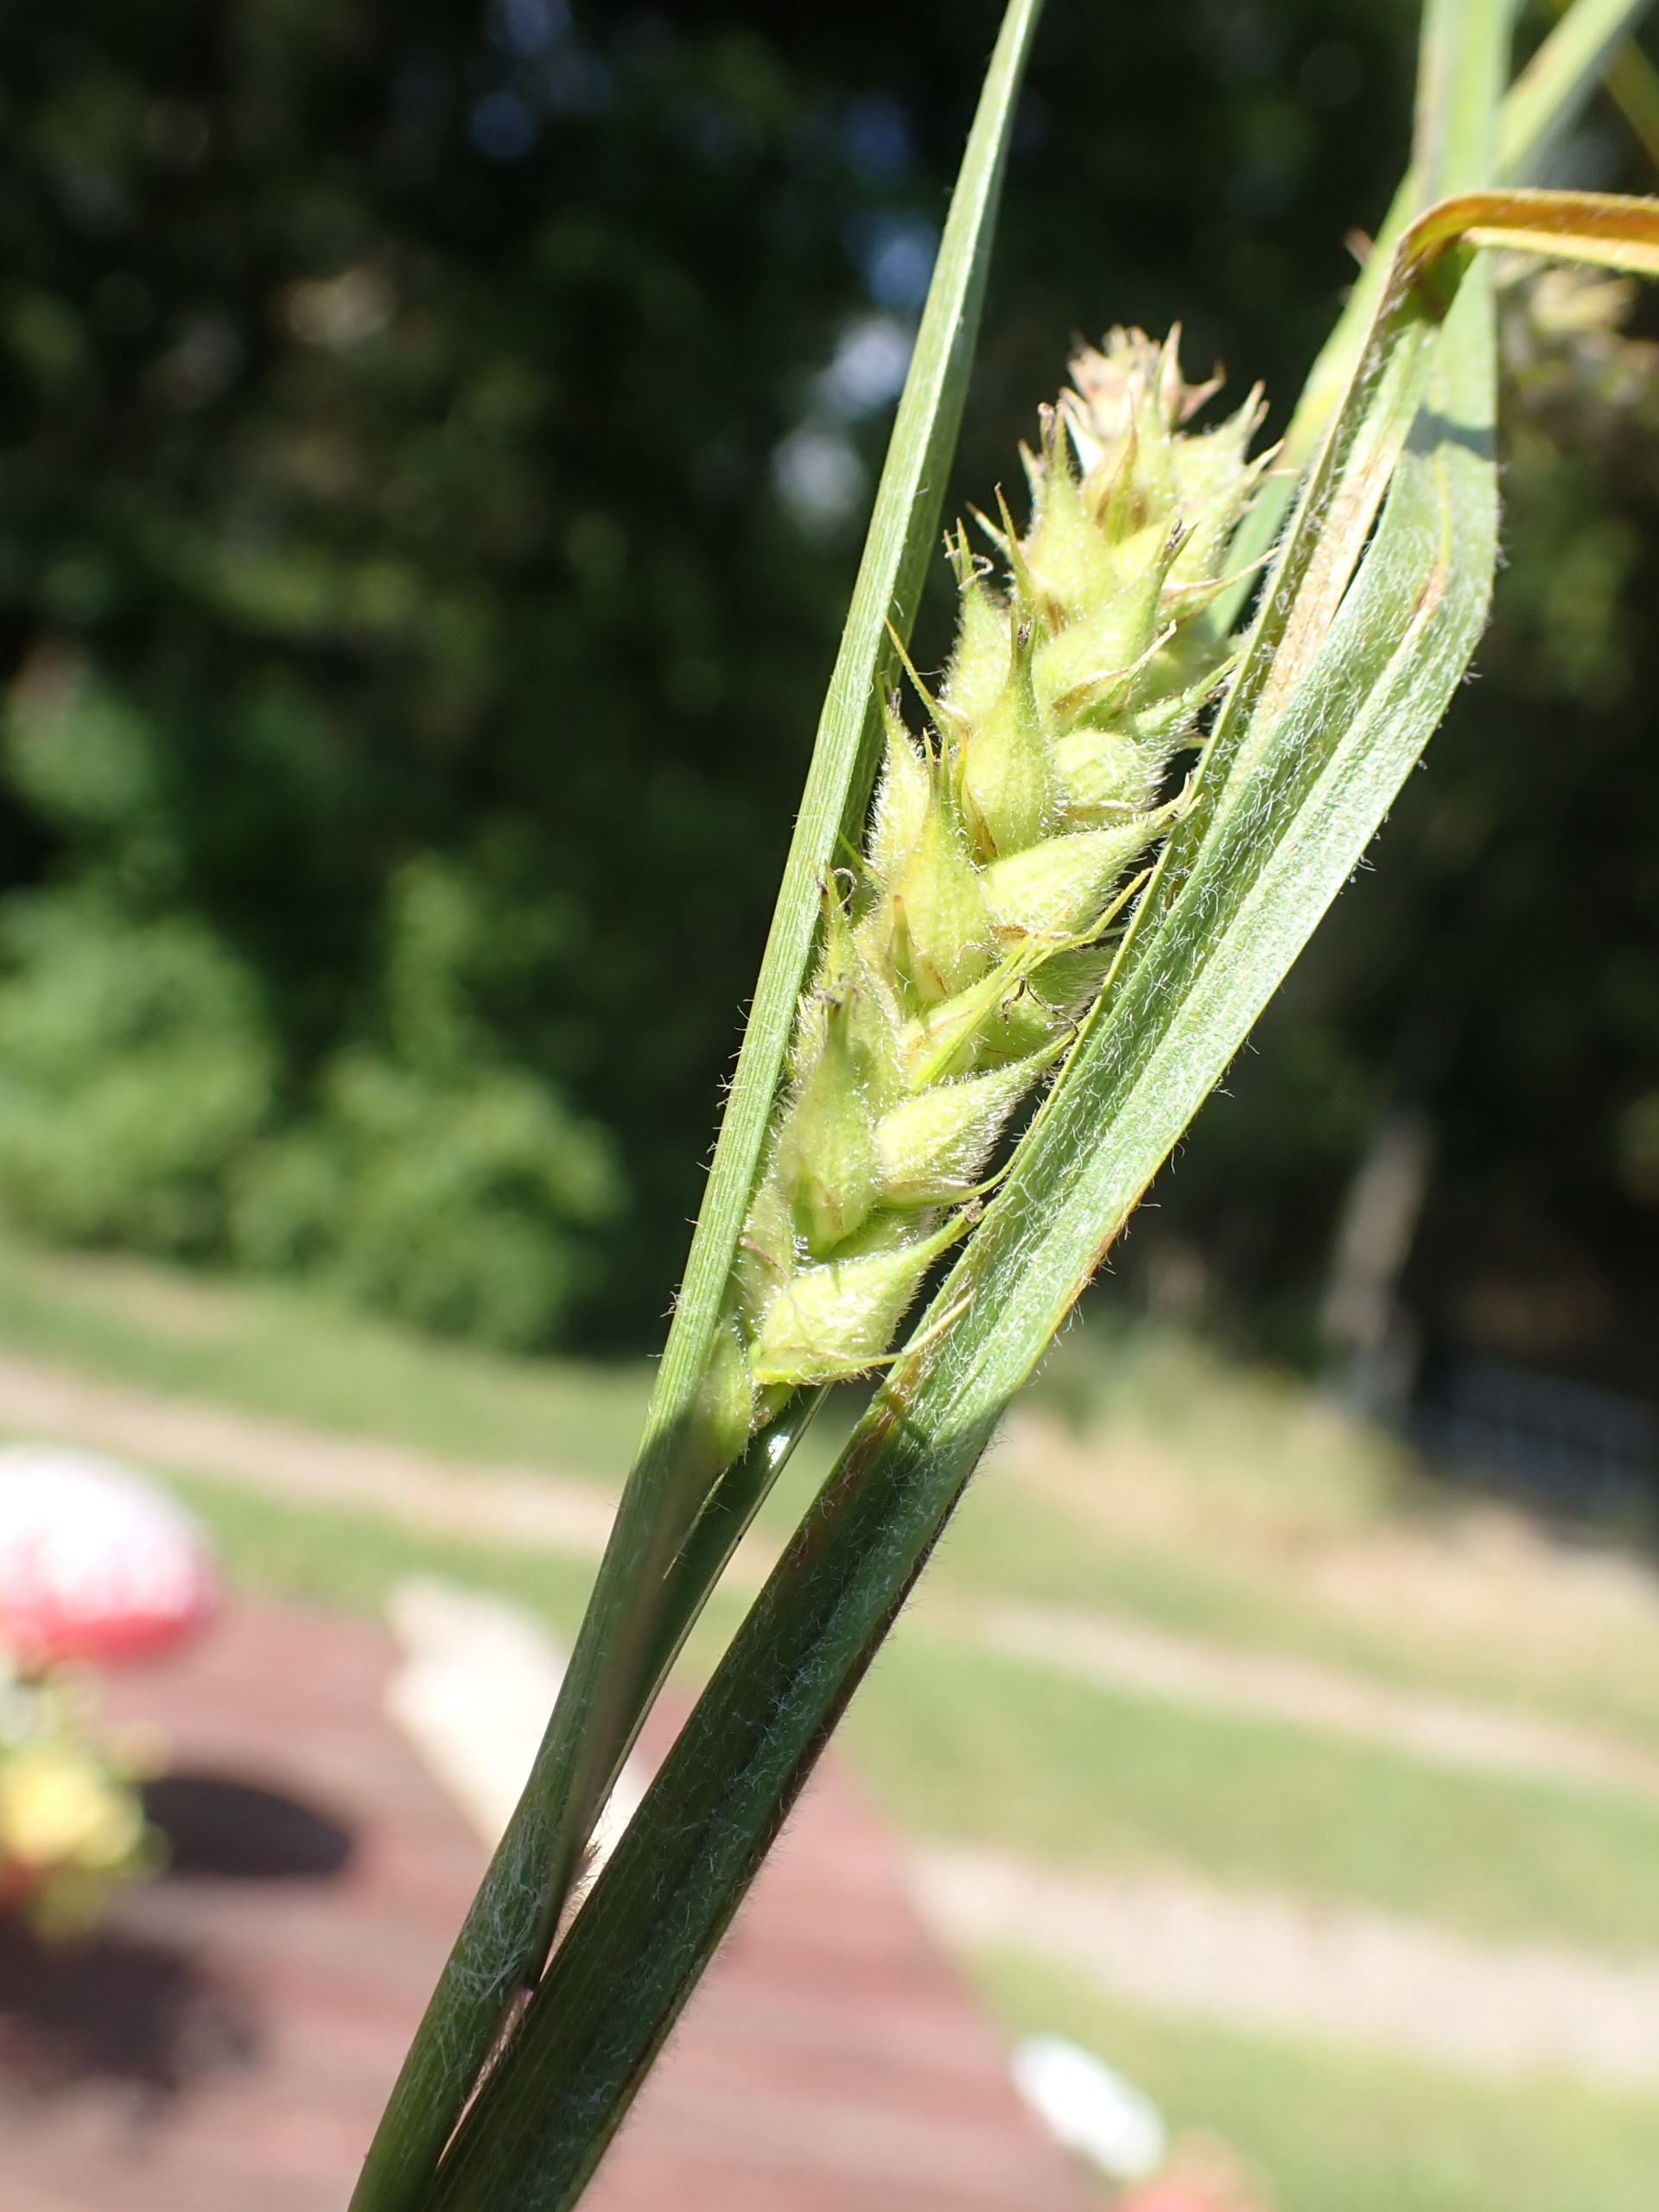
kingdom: Plantae
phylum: Tracheophyta
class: Liliopsida
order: Poales
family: Cyperaceae
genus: Carex
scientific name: Carex hirta
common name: Håret star
